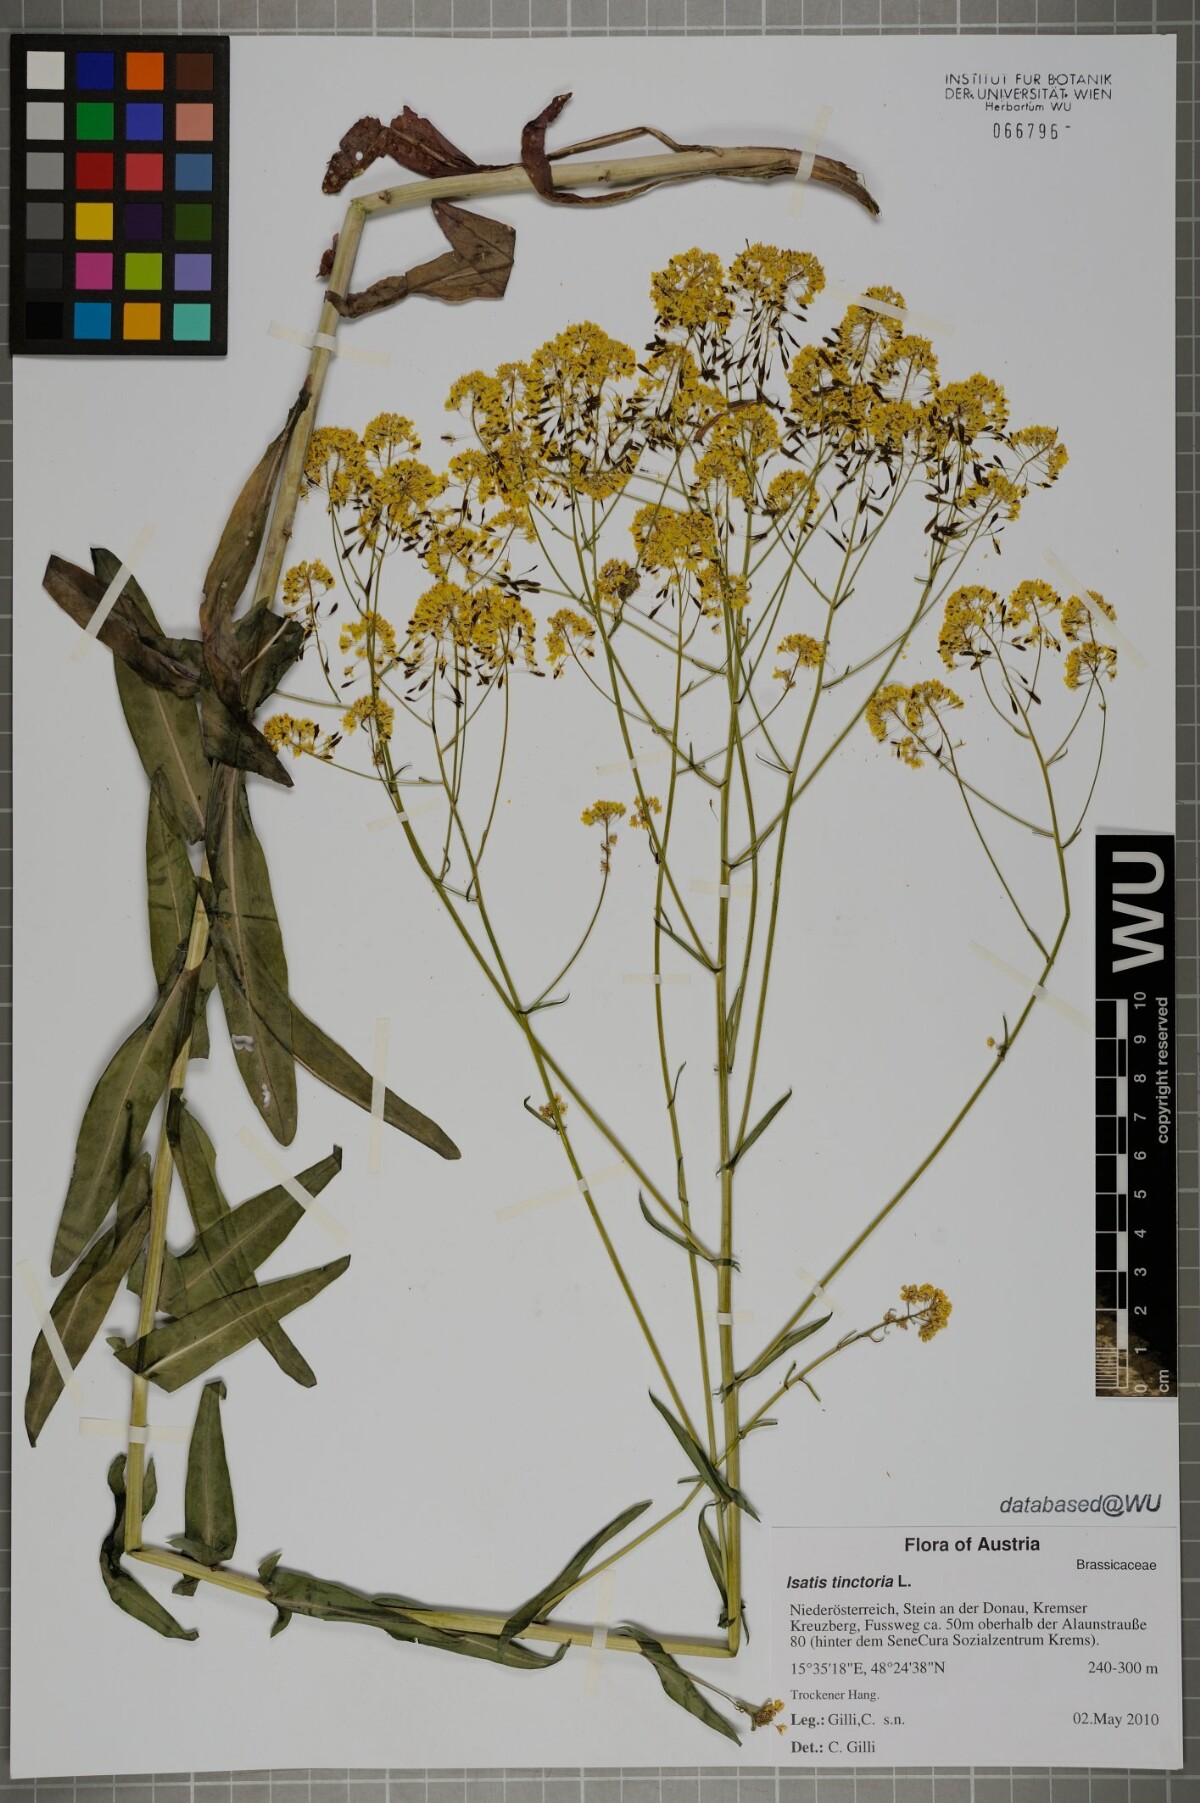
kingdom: Plantae
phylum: Tracheophyta
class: Magnoliopsida
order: Brassicales
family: Brassicaceae
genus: Isatis
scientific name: Isatis tinctoria
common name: Woad
